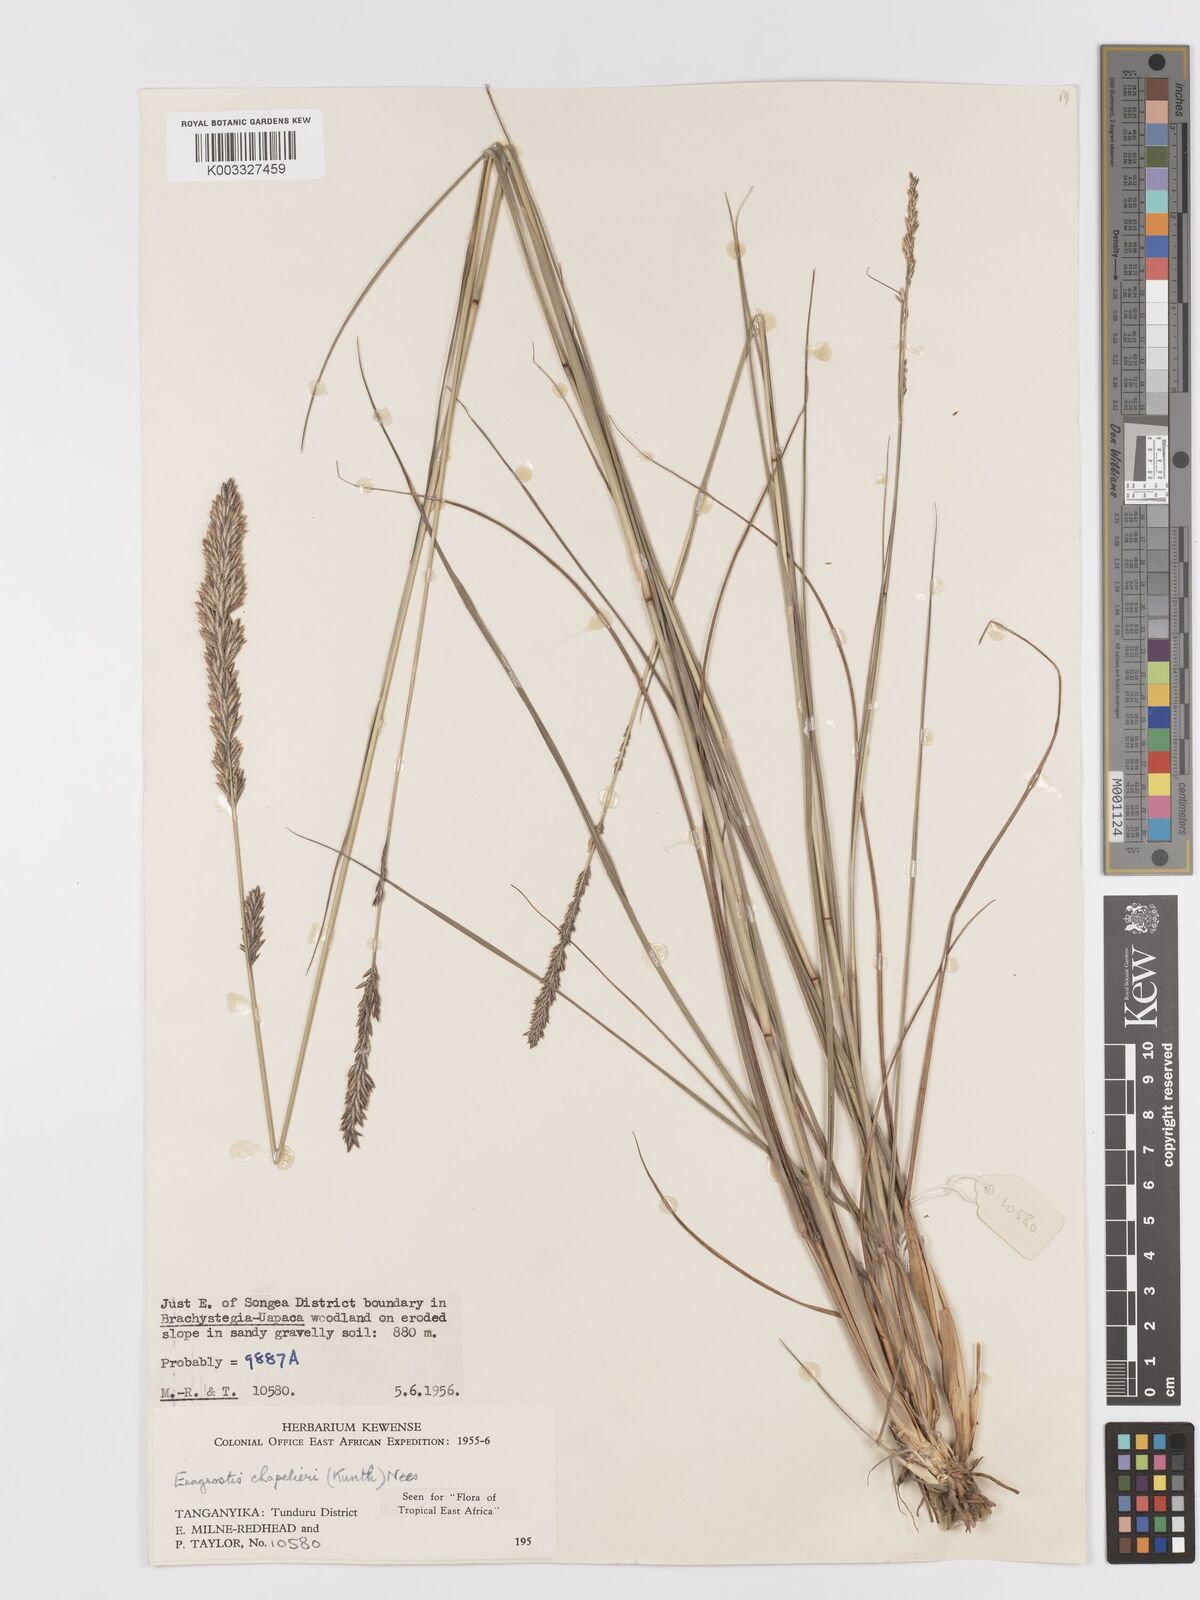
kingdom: Plantae
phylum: Tracheophyta
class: Liliopsida
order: Poales
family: Poaceae
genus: Eragrostis
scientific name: Eragrostis chapelieri
